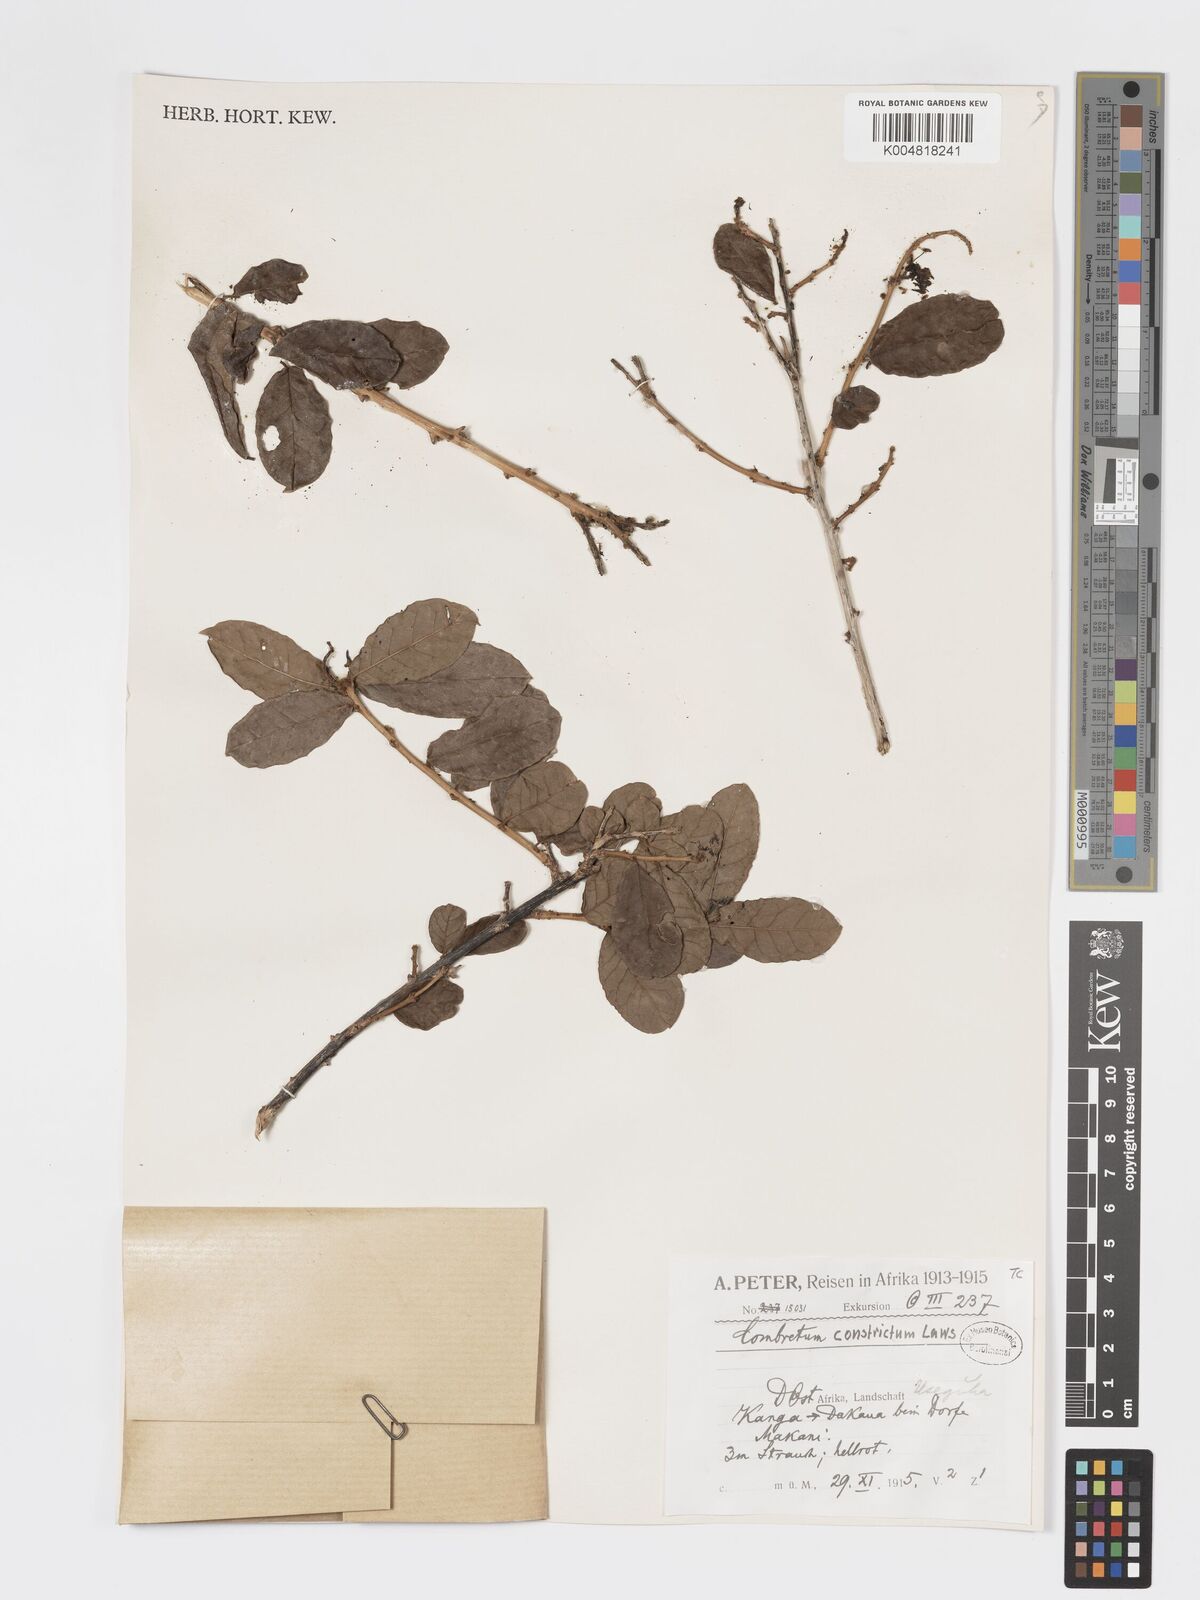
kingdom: Plantae
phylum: Tracheophyta
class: Magnoliopsida
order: Myrtales
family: Combretaceae
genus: Combretum
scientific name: Combretum constrictum
